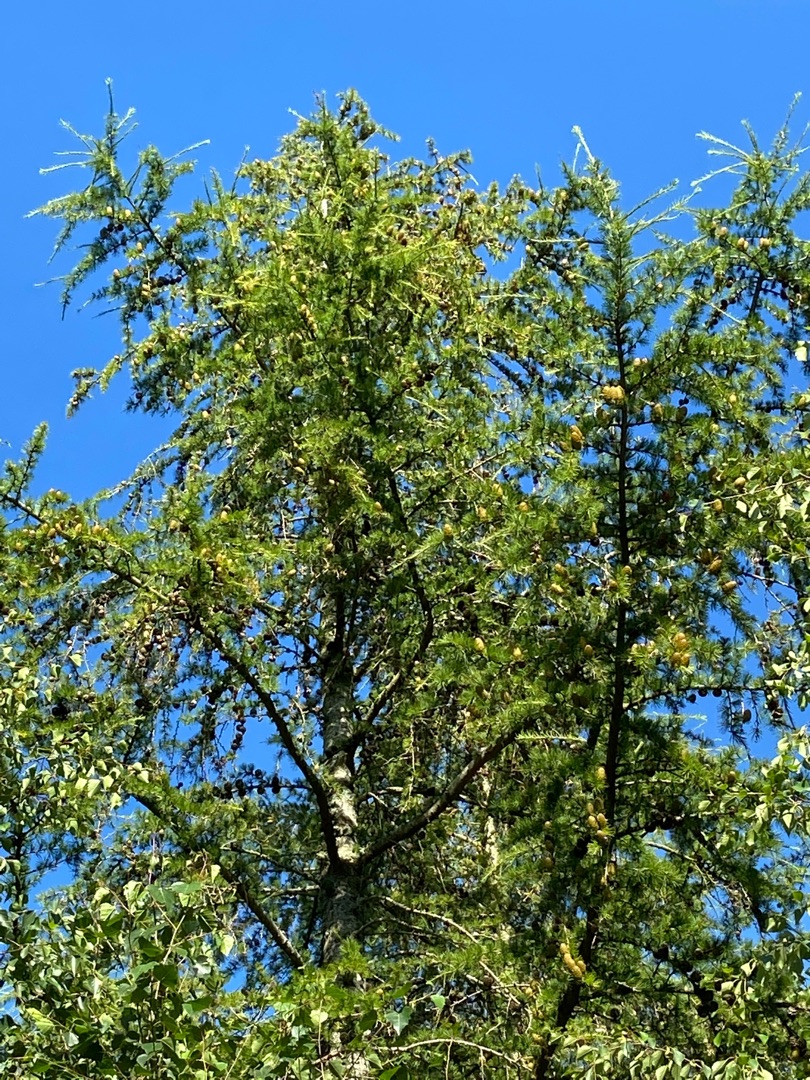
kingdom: Plantae
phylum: Tracheophyta
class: Pinopsida
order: Pinales
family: Pinaceae
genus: Larix
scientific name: Larix
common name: Lærkeslægten
